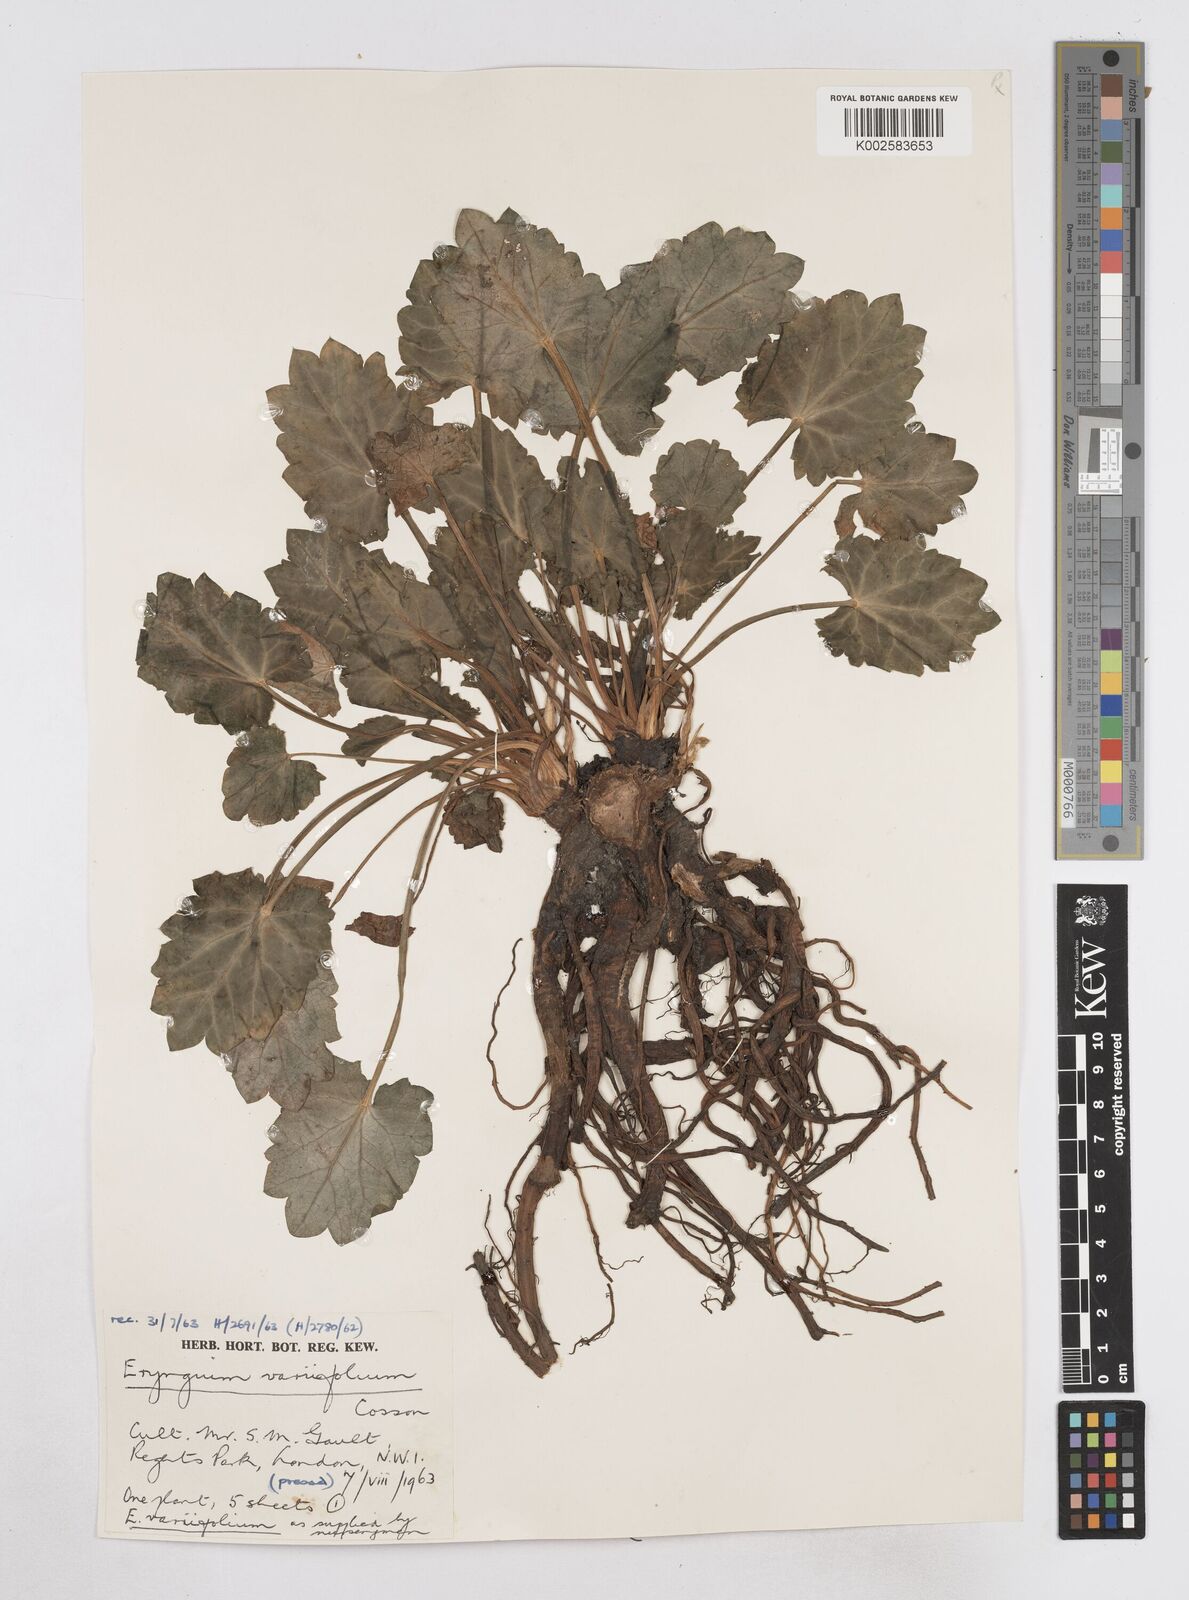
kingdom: Plantae
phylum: Tracheophyta
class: Magnoliopsida
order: Apiales
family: Apiaceae
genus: Eryngium
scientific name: Eryngium variifolium
